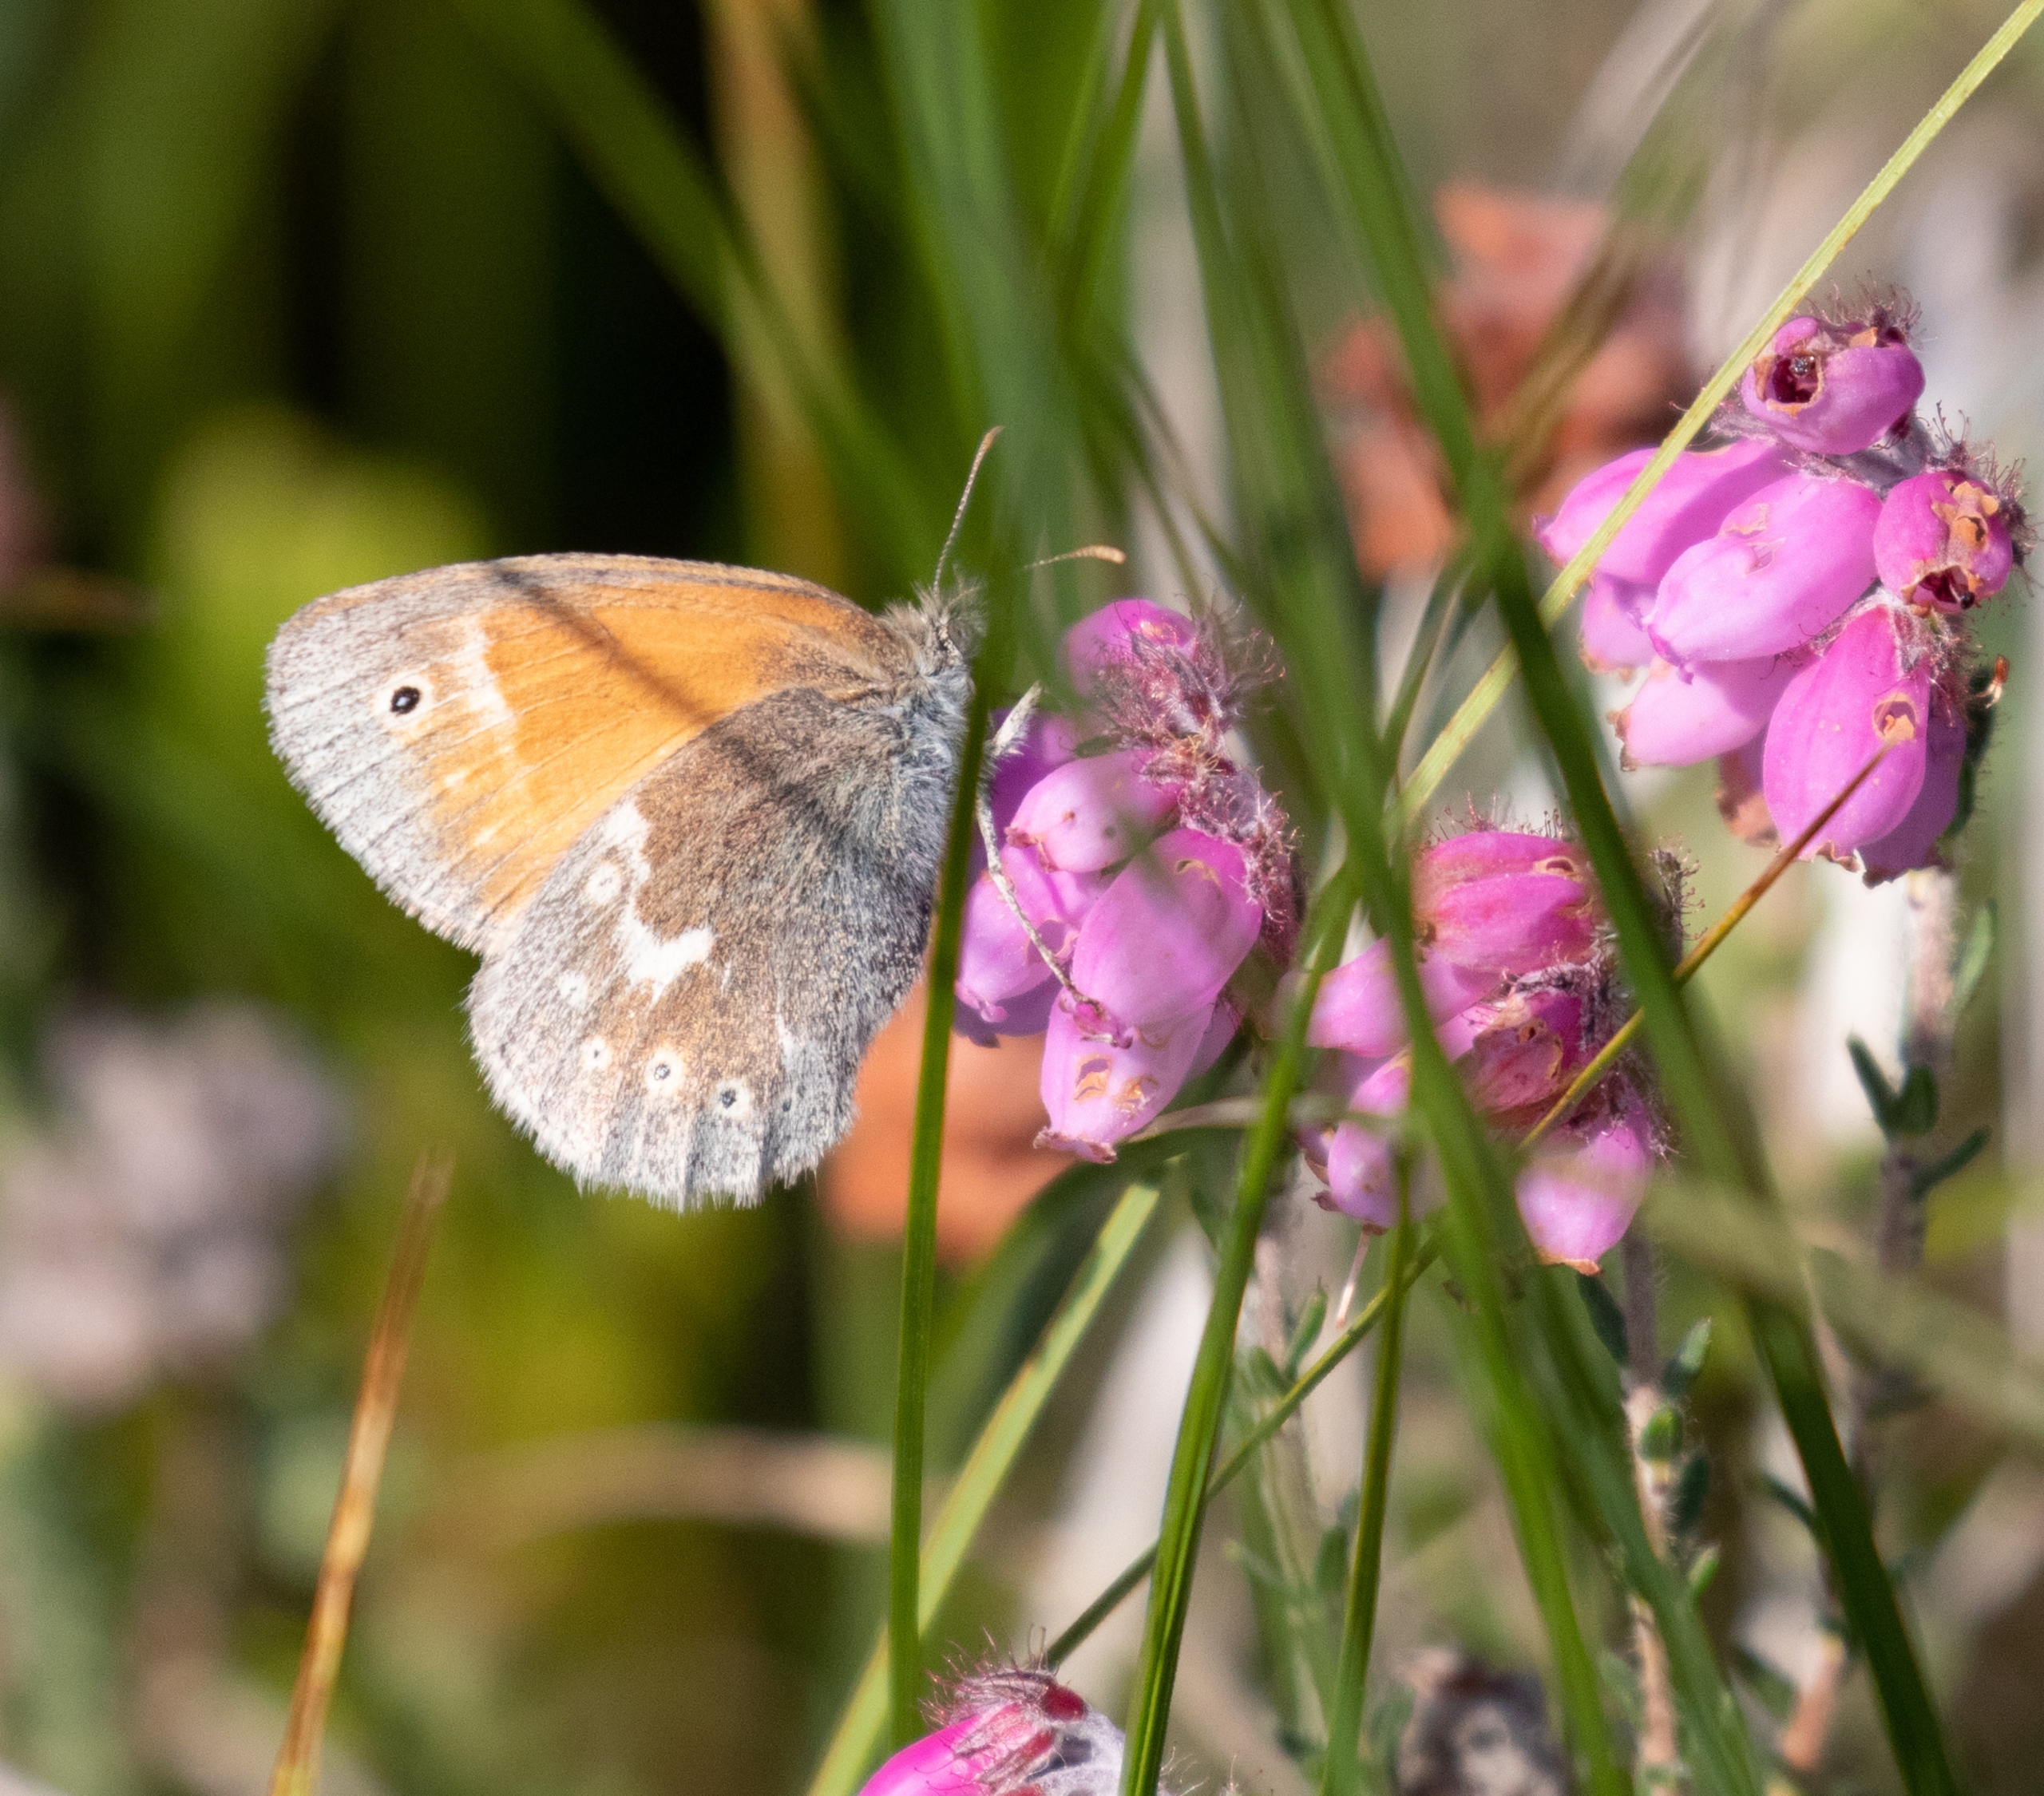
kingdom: Animalia
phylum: Arthropoda
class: Insecta
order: Lepidoptera
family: Nymphalidae
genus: Coenonympha
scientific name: Coenonympha tullia
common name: Moserandøje
